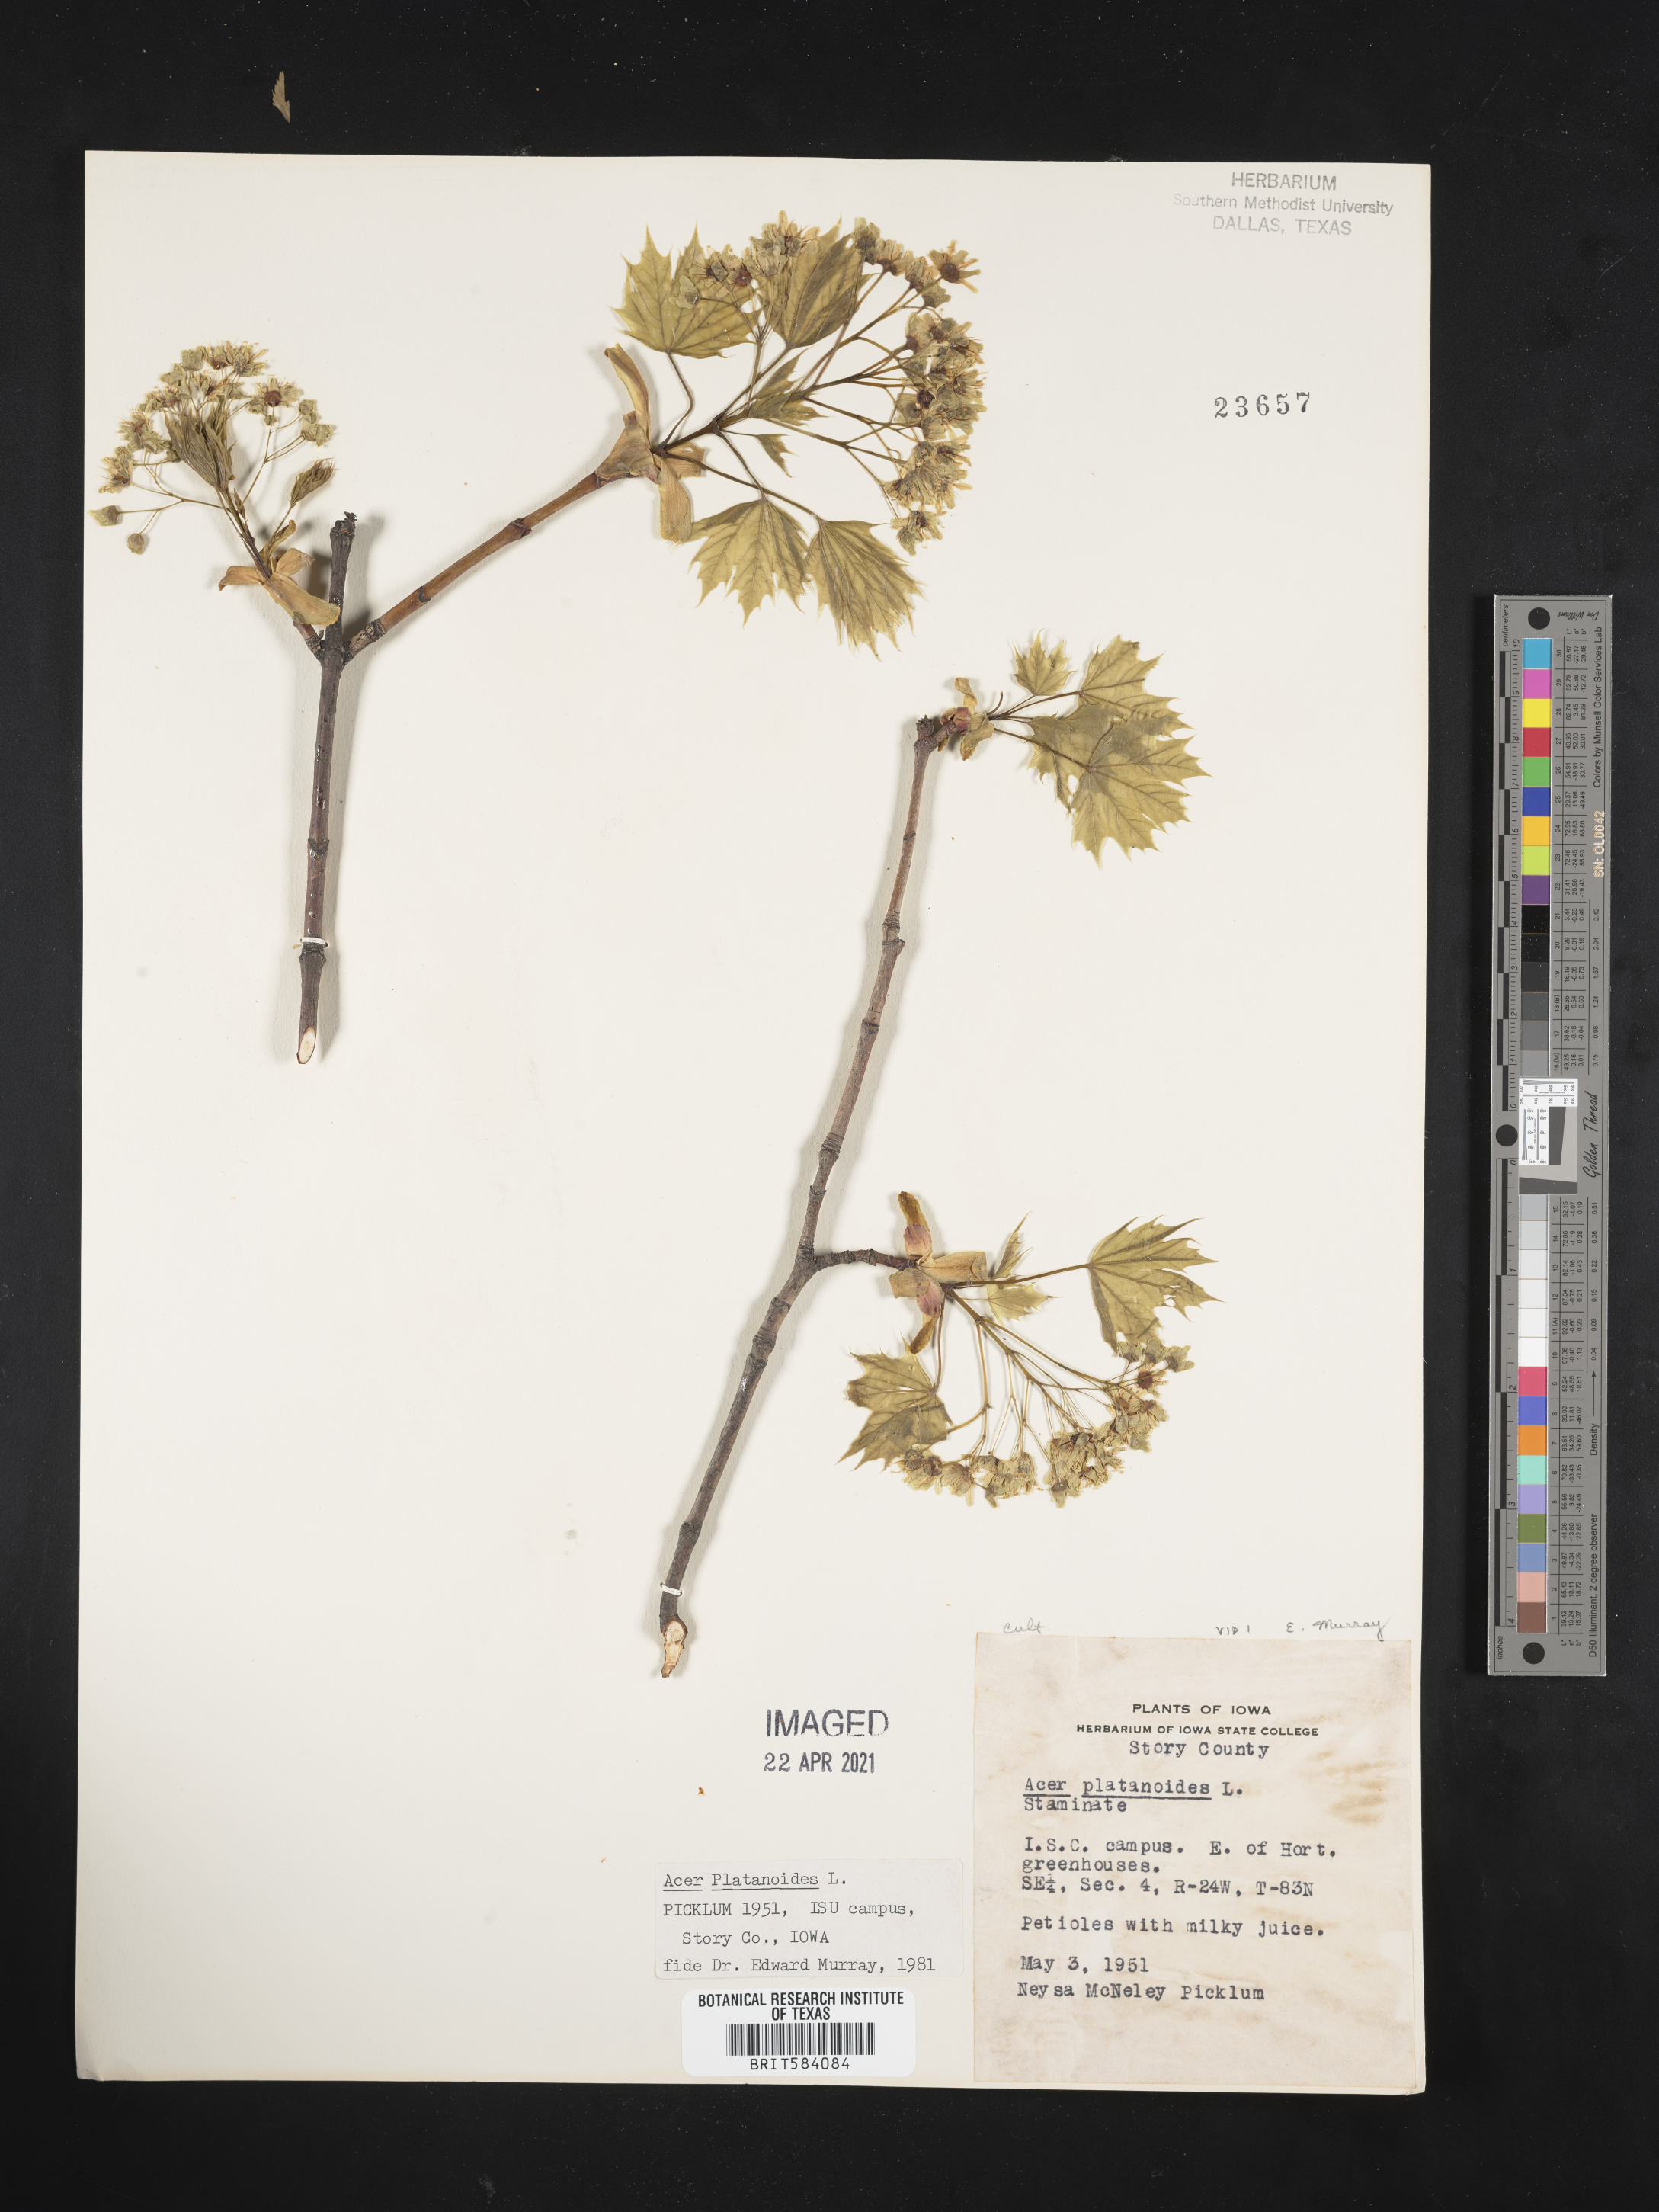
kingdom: Plantae
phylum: Tracheophyta
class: Magnoliopsida
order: Sapindales
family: Sapindaceae
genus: Acer
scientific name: Acer platanoides
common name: Norway maple
